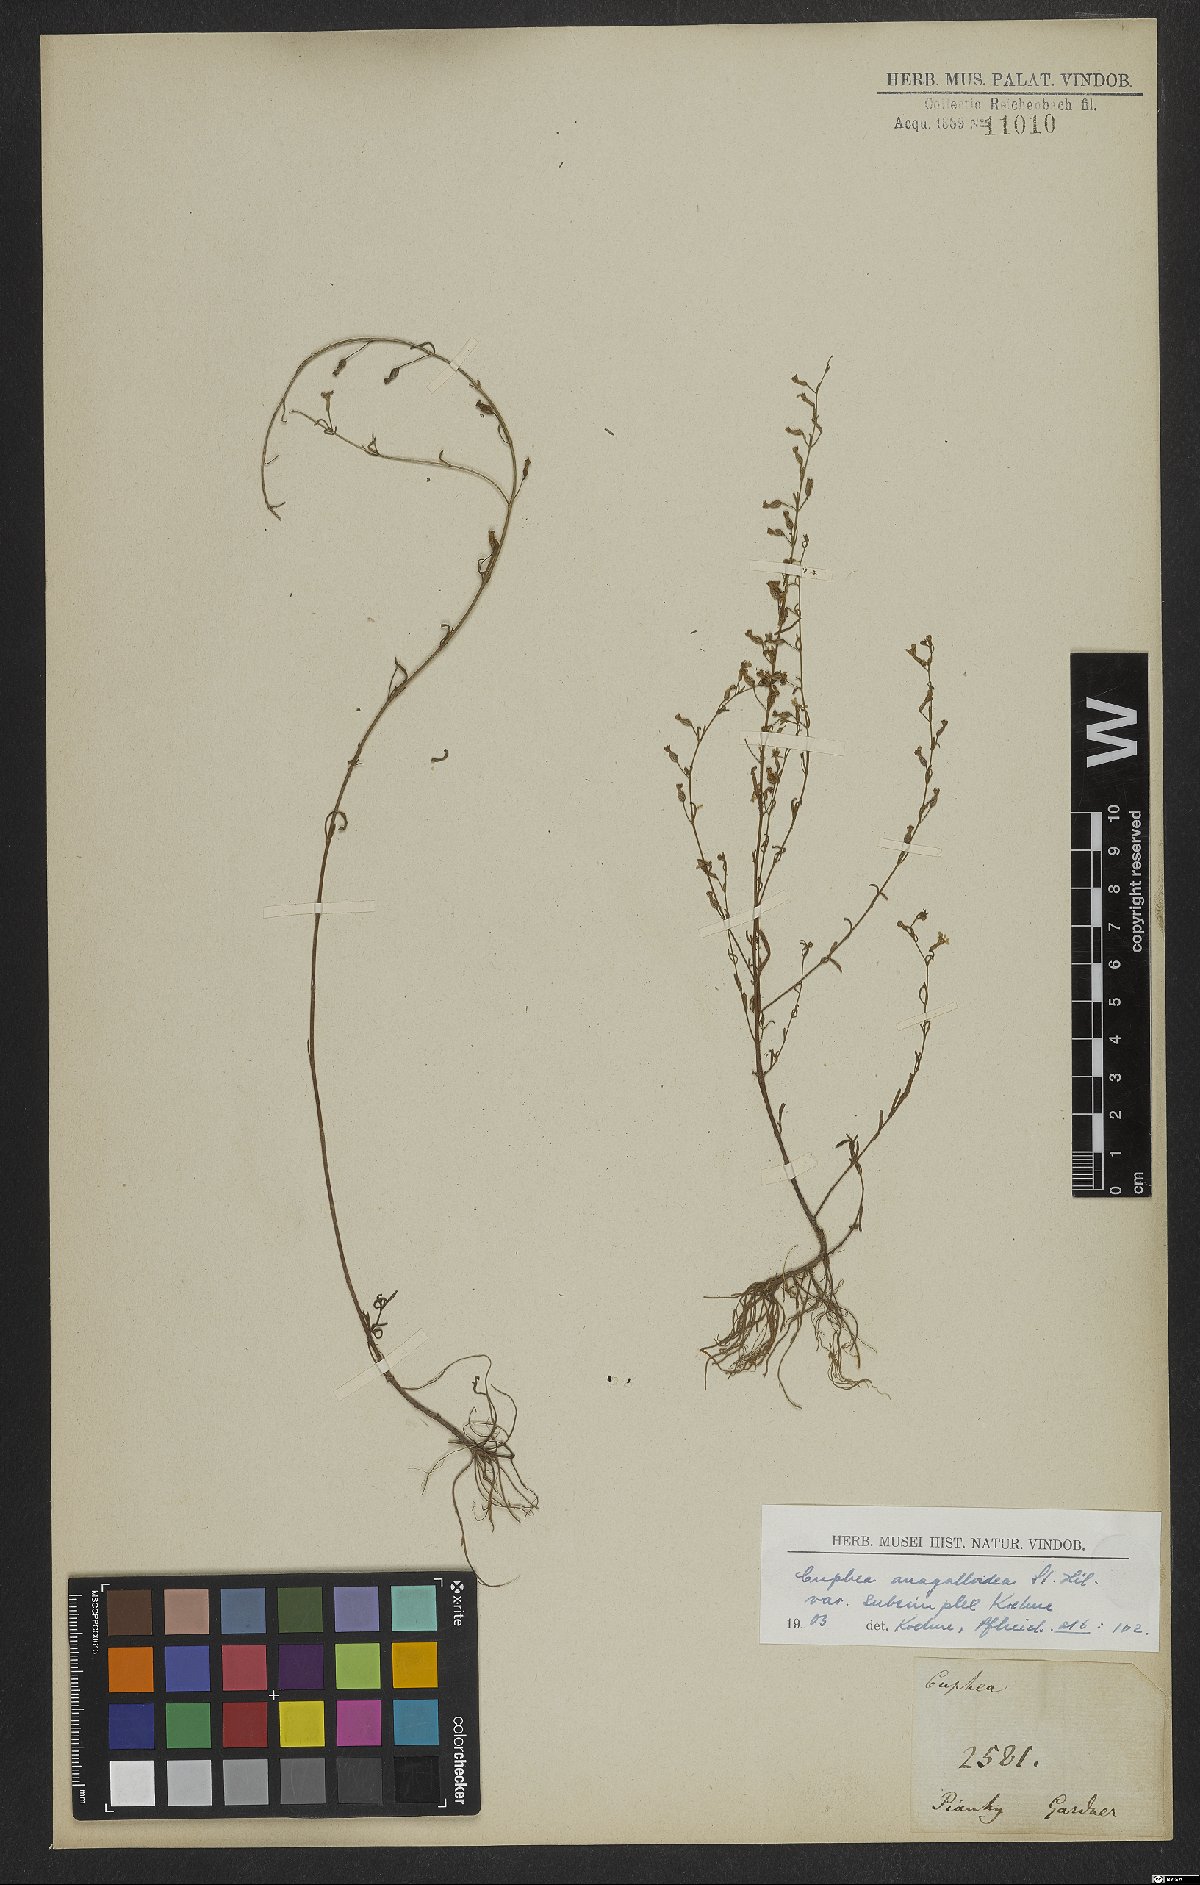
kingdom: Plantae
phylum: Tracheophyta
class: Magnoliopsida
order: Myrtales
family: Lythraceae
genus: Cuphea
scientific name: Cuphea anagalloidea
